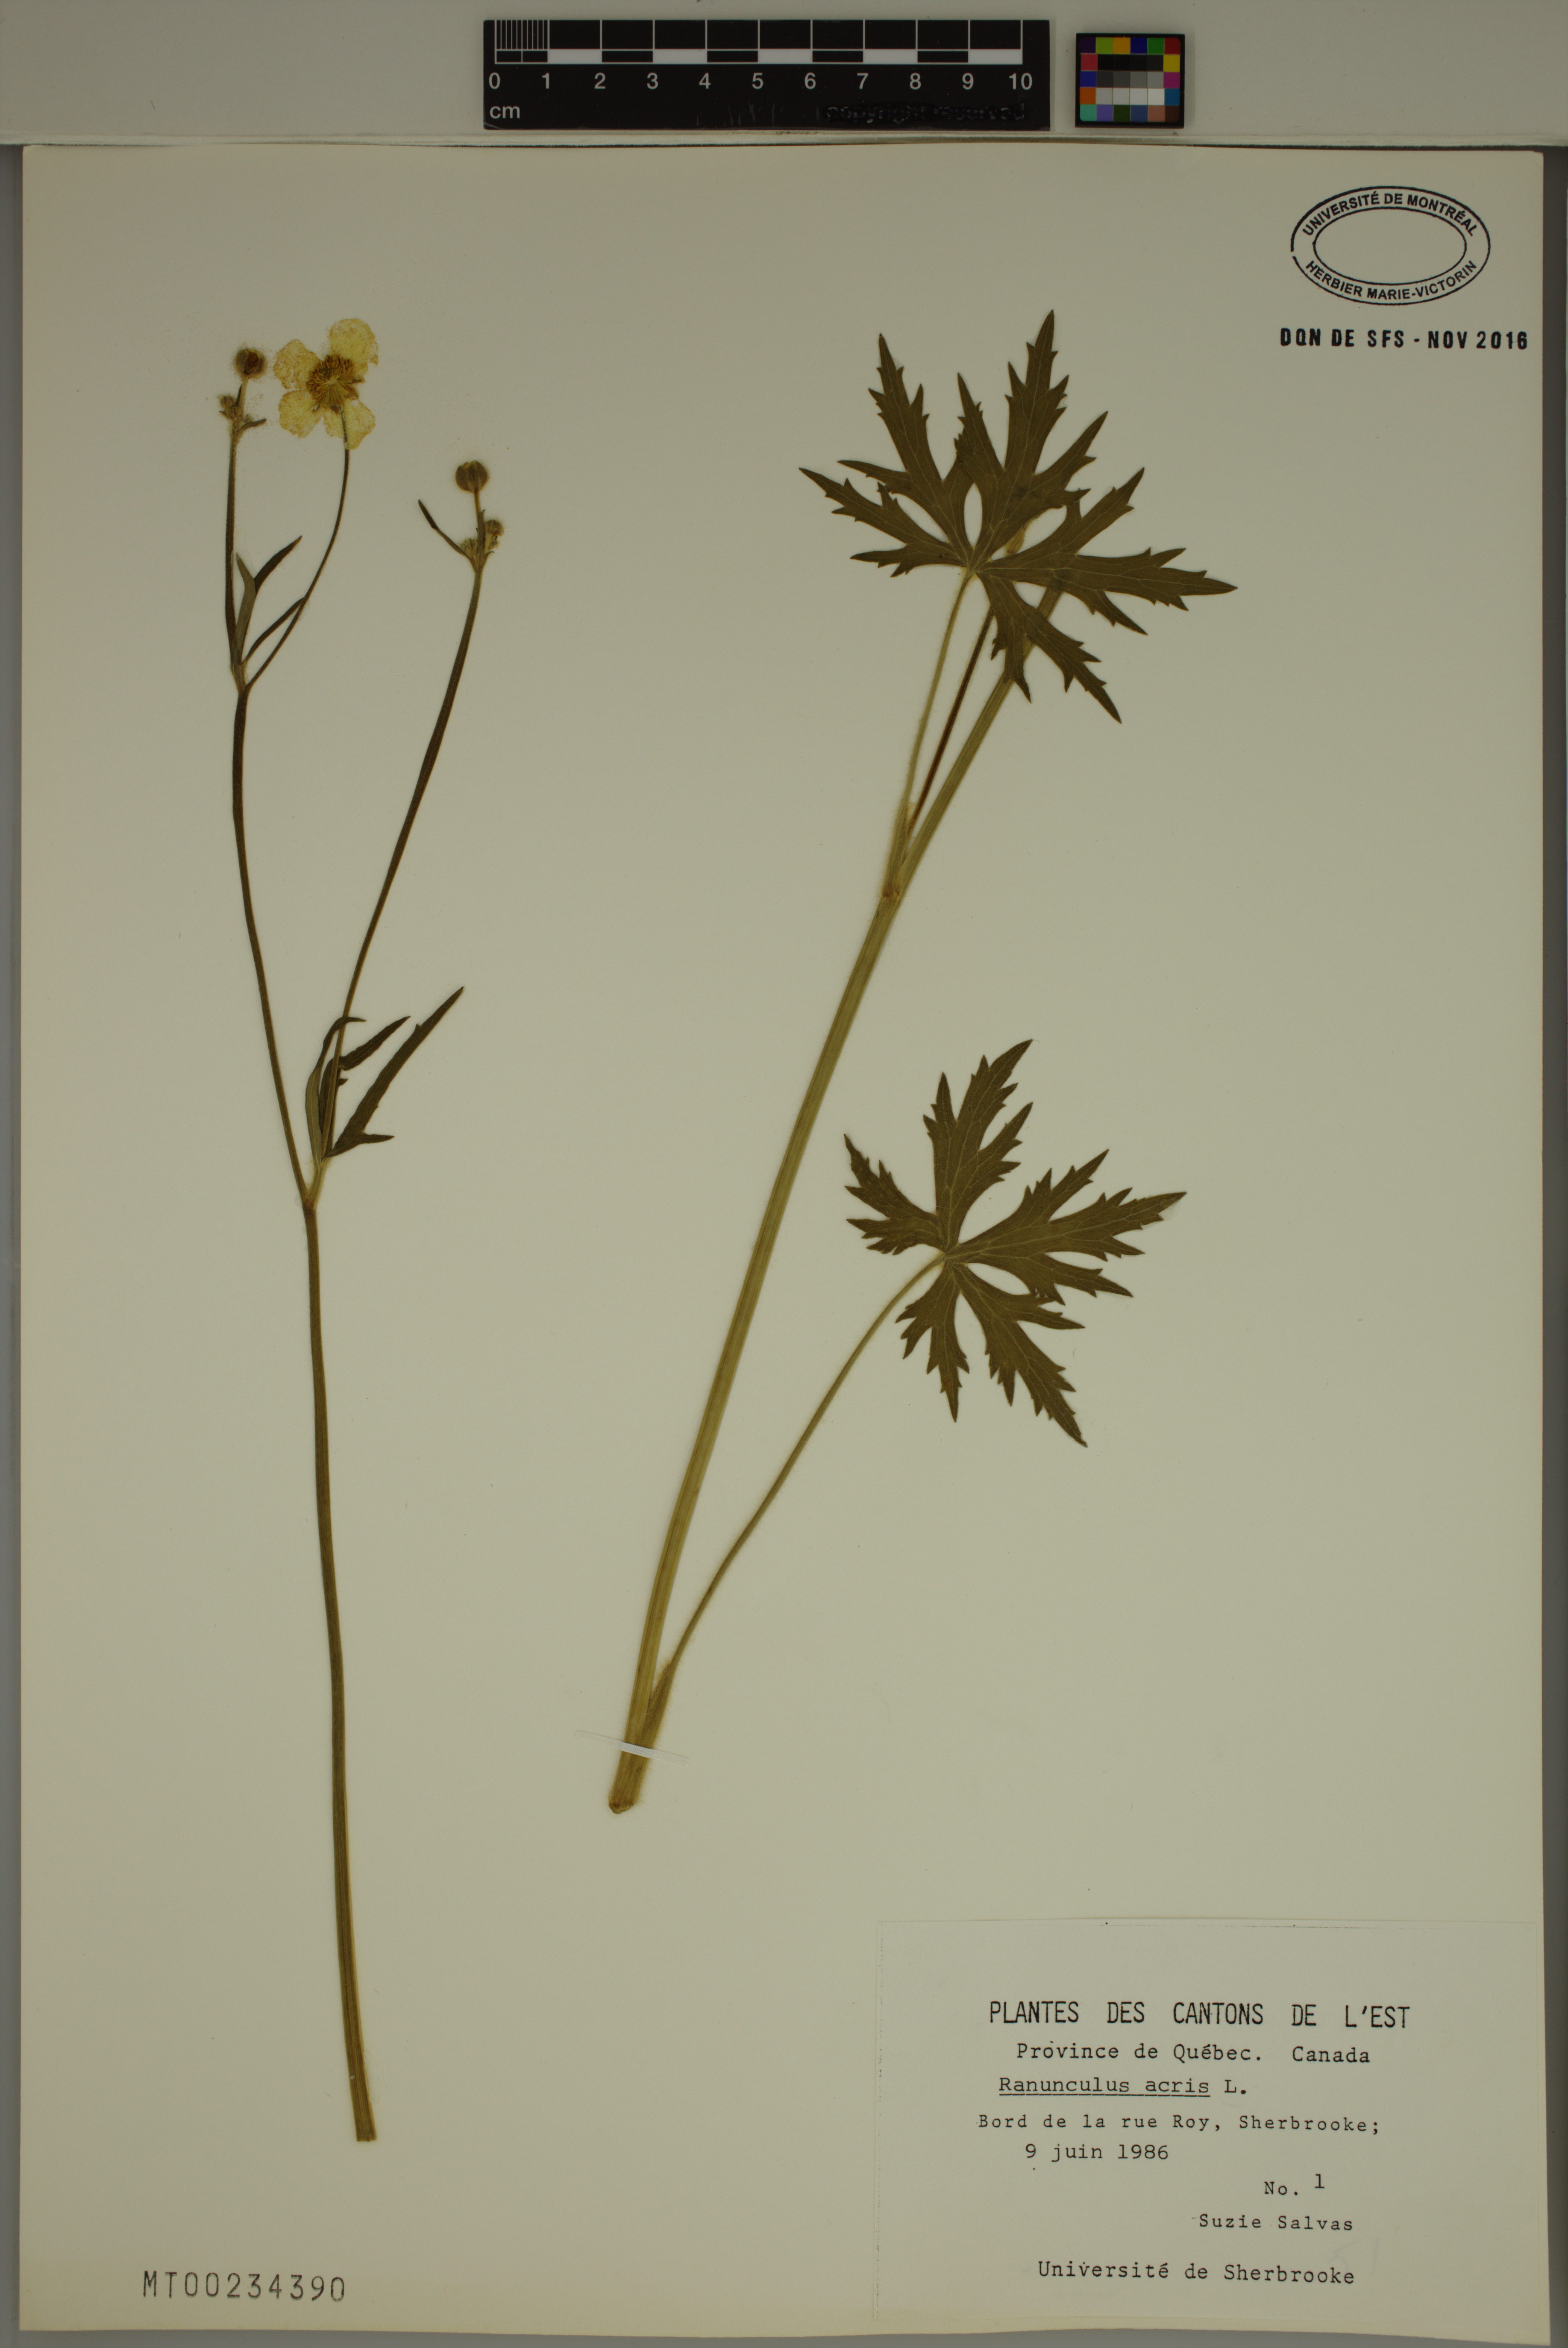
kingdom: Plantae
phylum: Tracheophyta
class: Magnoliopsida
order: Ranunculales
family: Ranunculaceae
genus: Ranunculus
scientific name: Ranunculus acris
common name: Meadow buttercup
